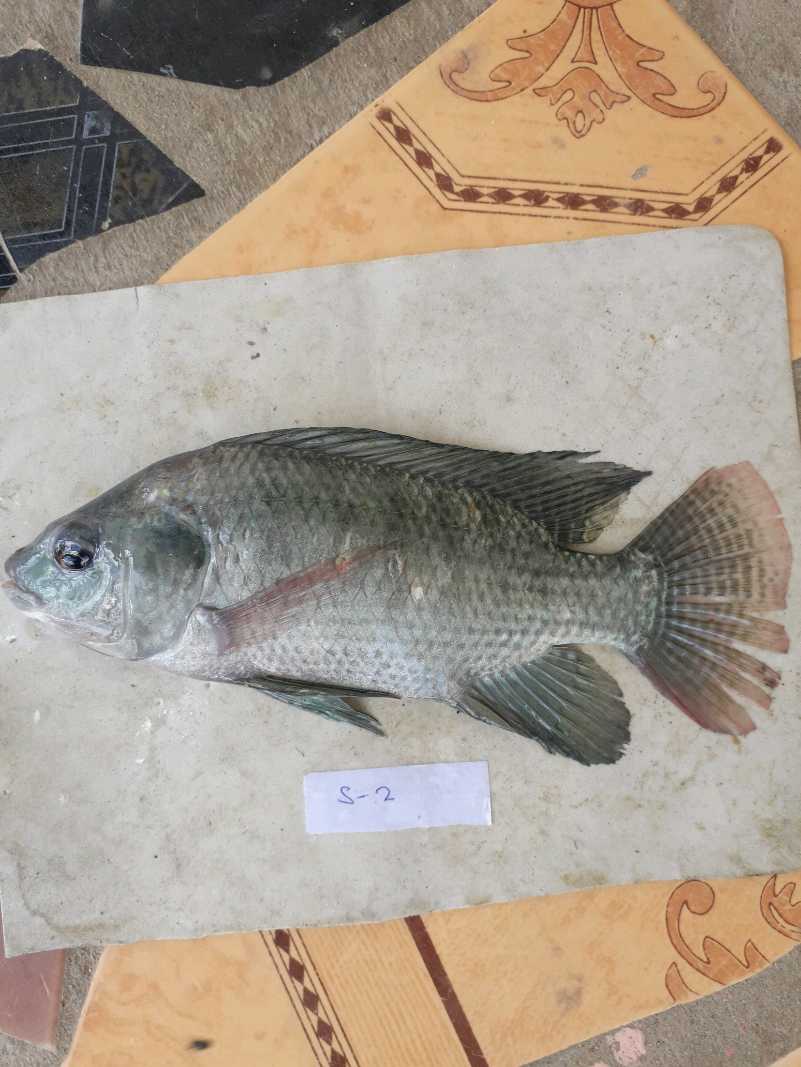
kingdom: Animalia
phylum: Chordata
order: Perciformes
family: Cichlidae
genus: Oreochromis
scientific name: Oreochromis niloticus
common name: Nile tilapia
